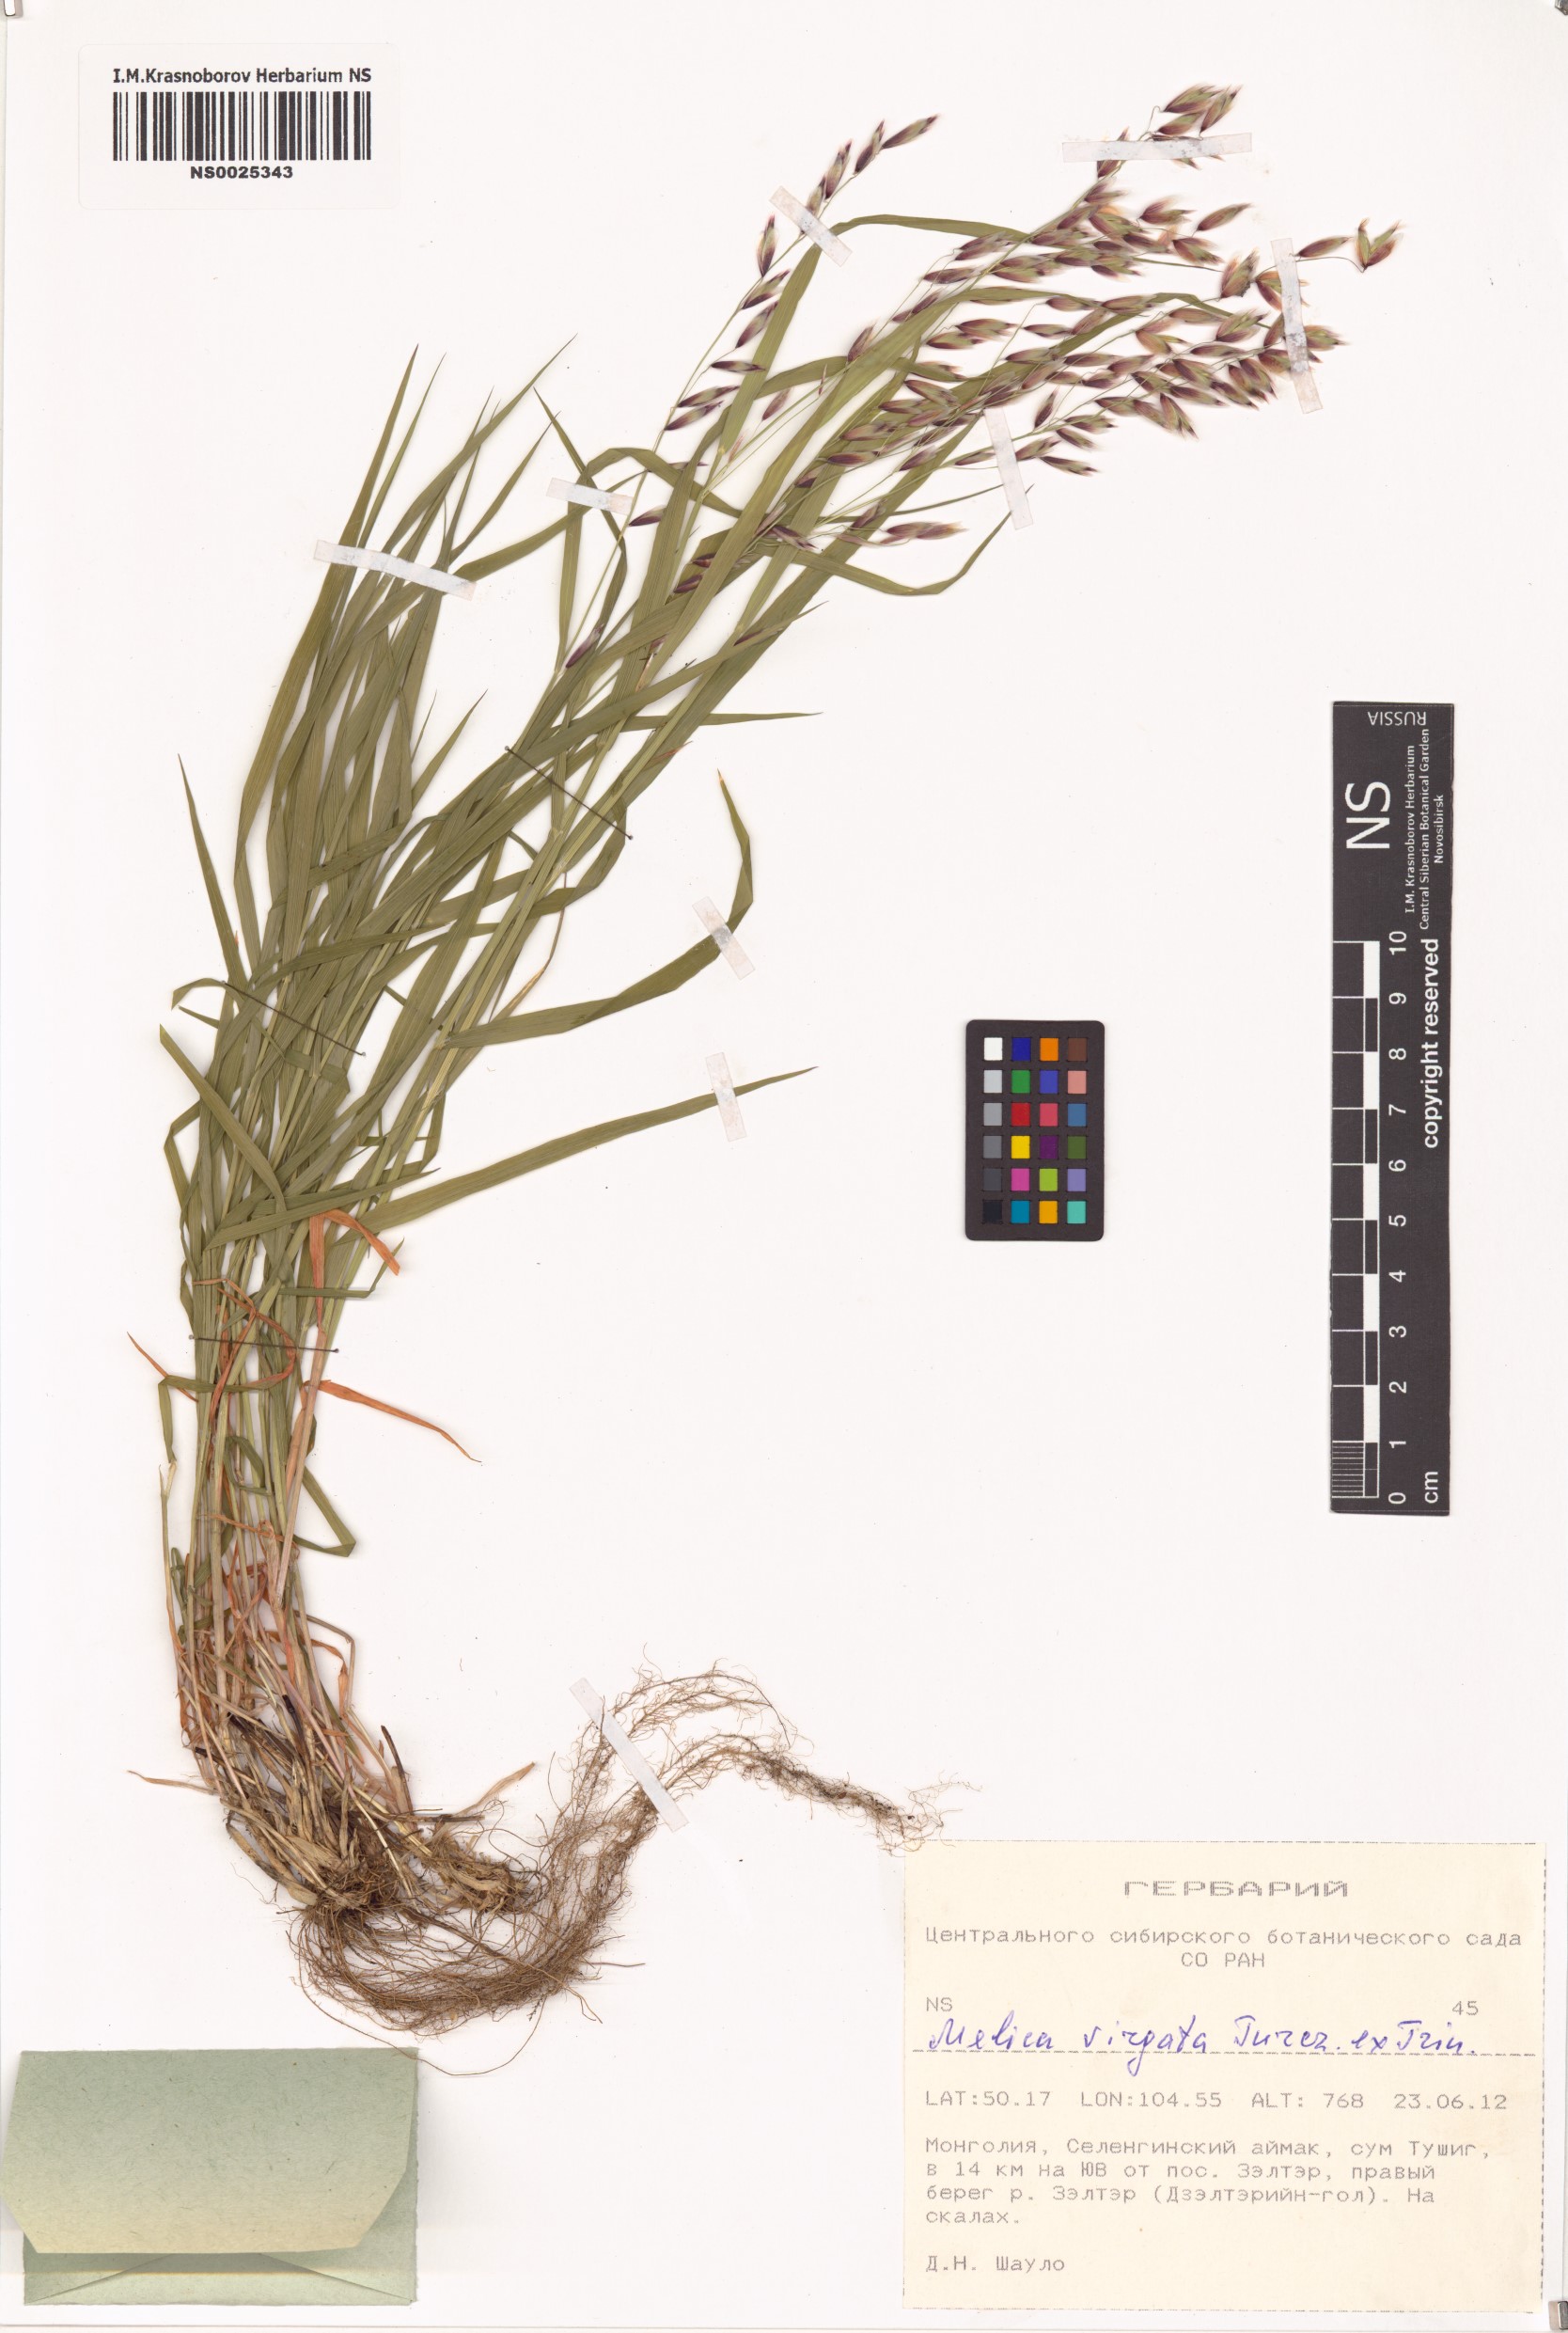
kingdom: Plantae
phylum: Tracheophyta
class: Liliopsida
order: Poales
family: Poaceae
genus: Melica
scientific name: Melica virgata
